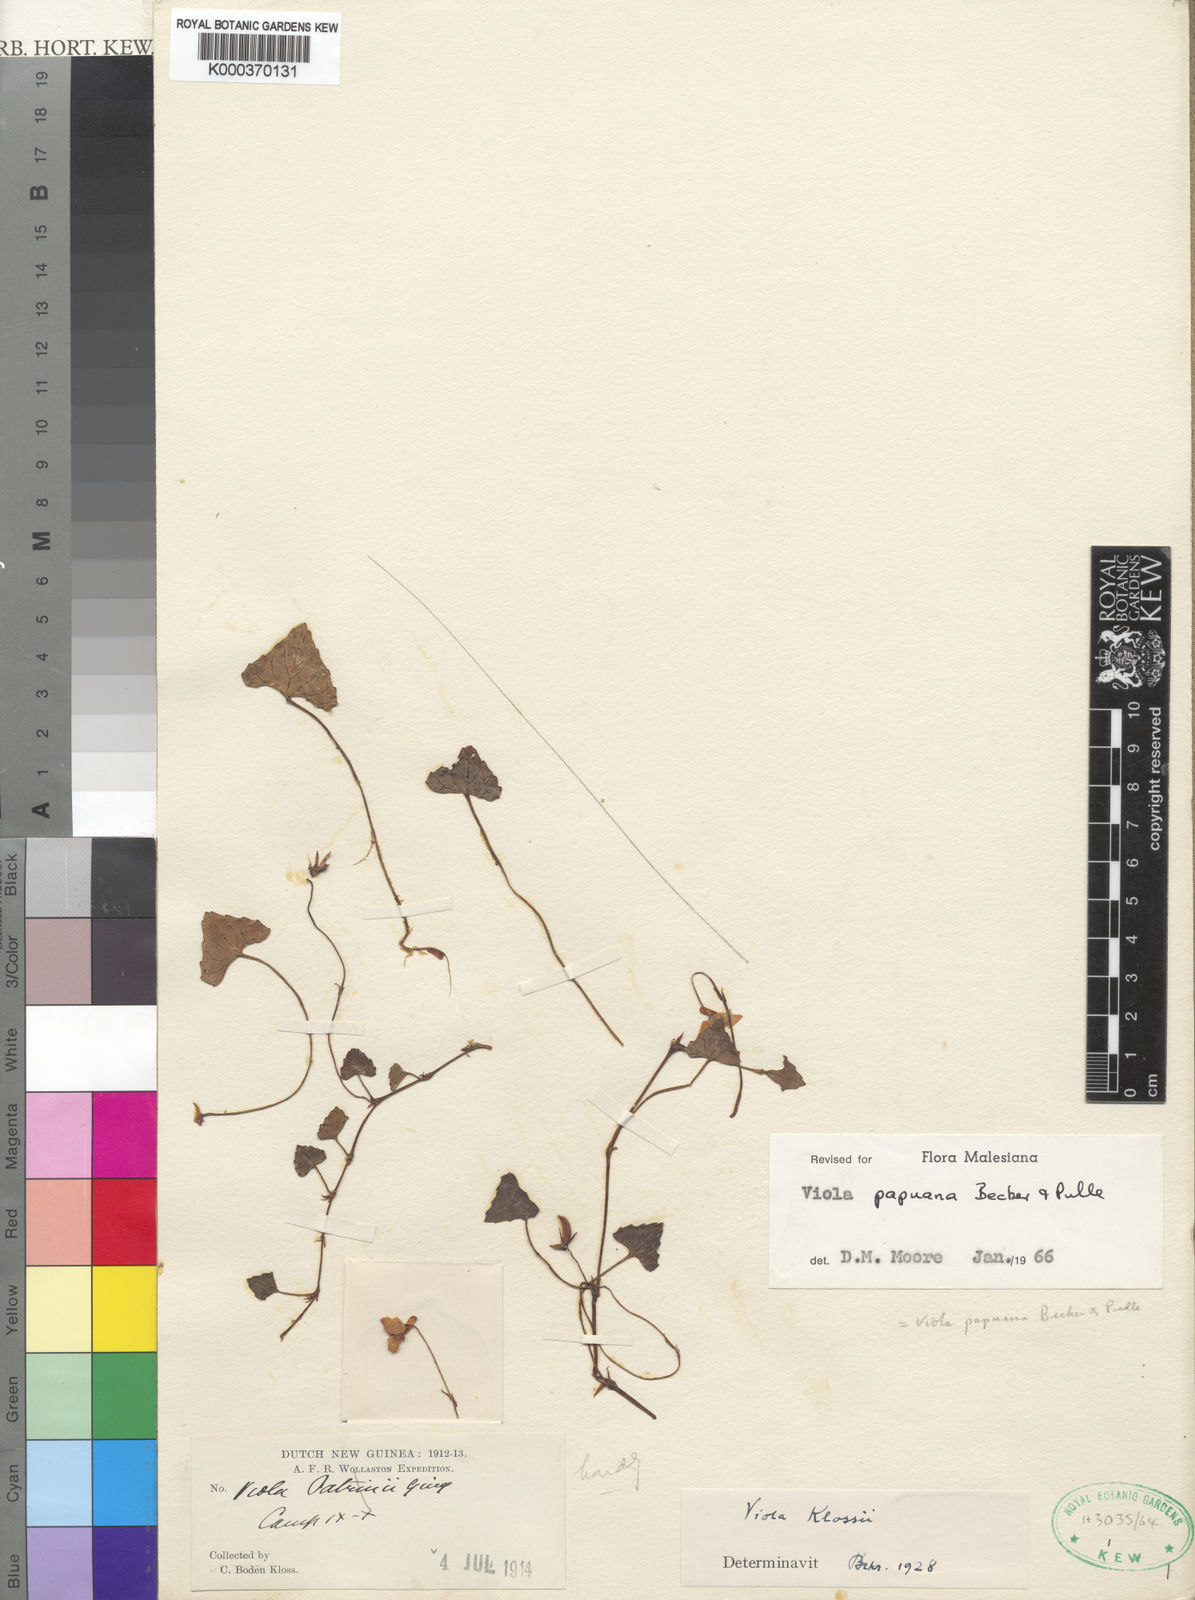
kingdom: Plantae
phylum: Tracheophyta
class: Magnoliopsida
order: Malpighiales
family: Violaceae
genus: Viola
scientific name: Viola papuana
